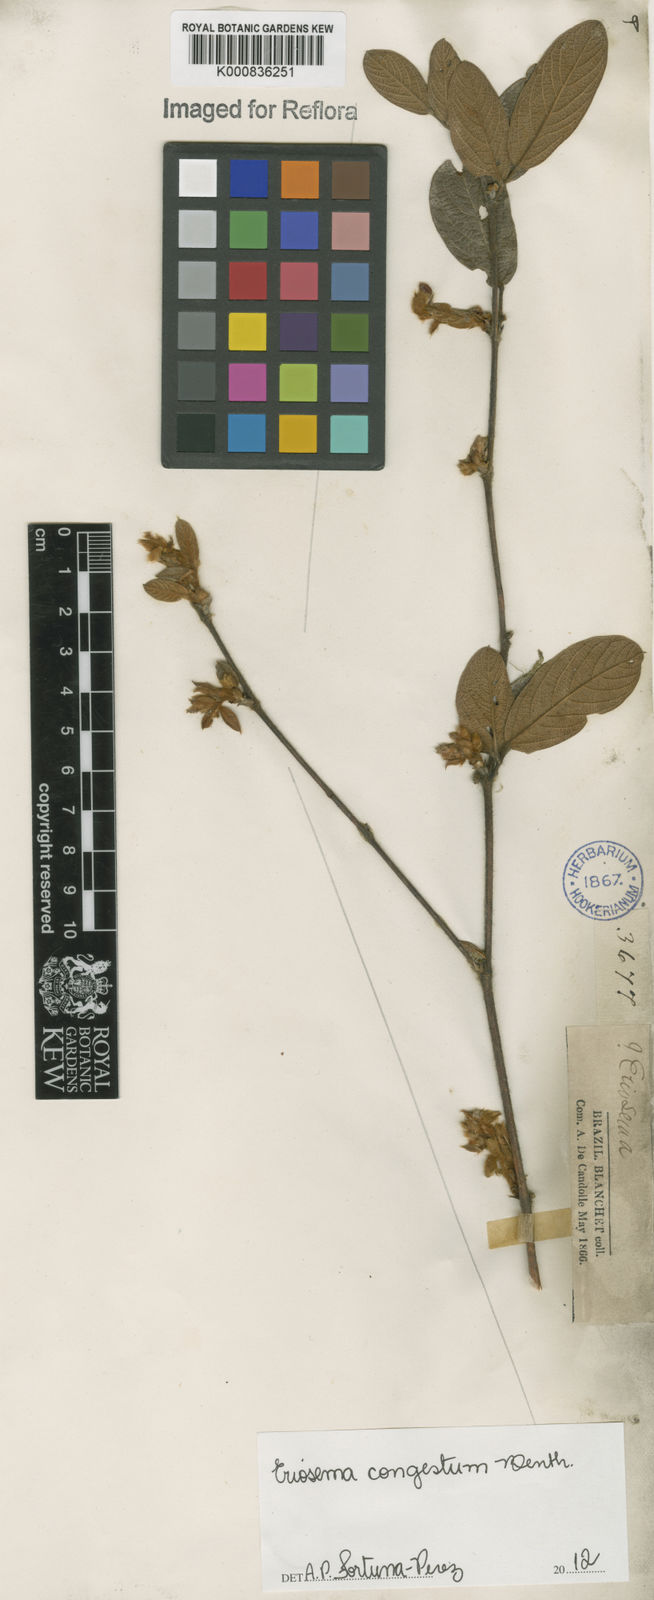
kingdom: Plantae
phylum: Tracheophyta
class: Magnoliopsida
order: Fabales
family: Fabaceae
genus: Eriosema
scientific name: Eriosema congestum
